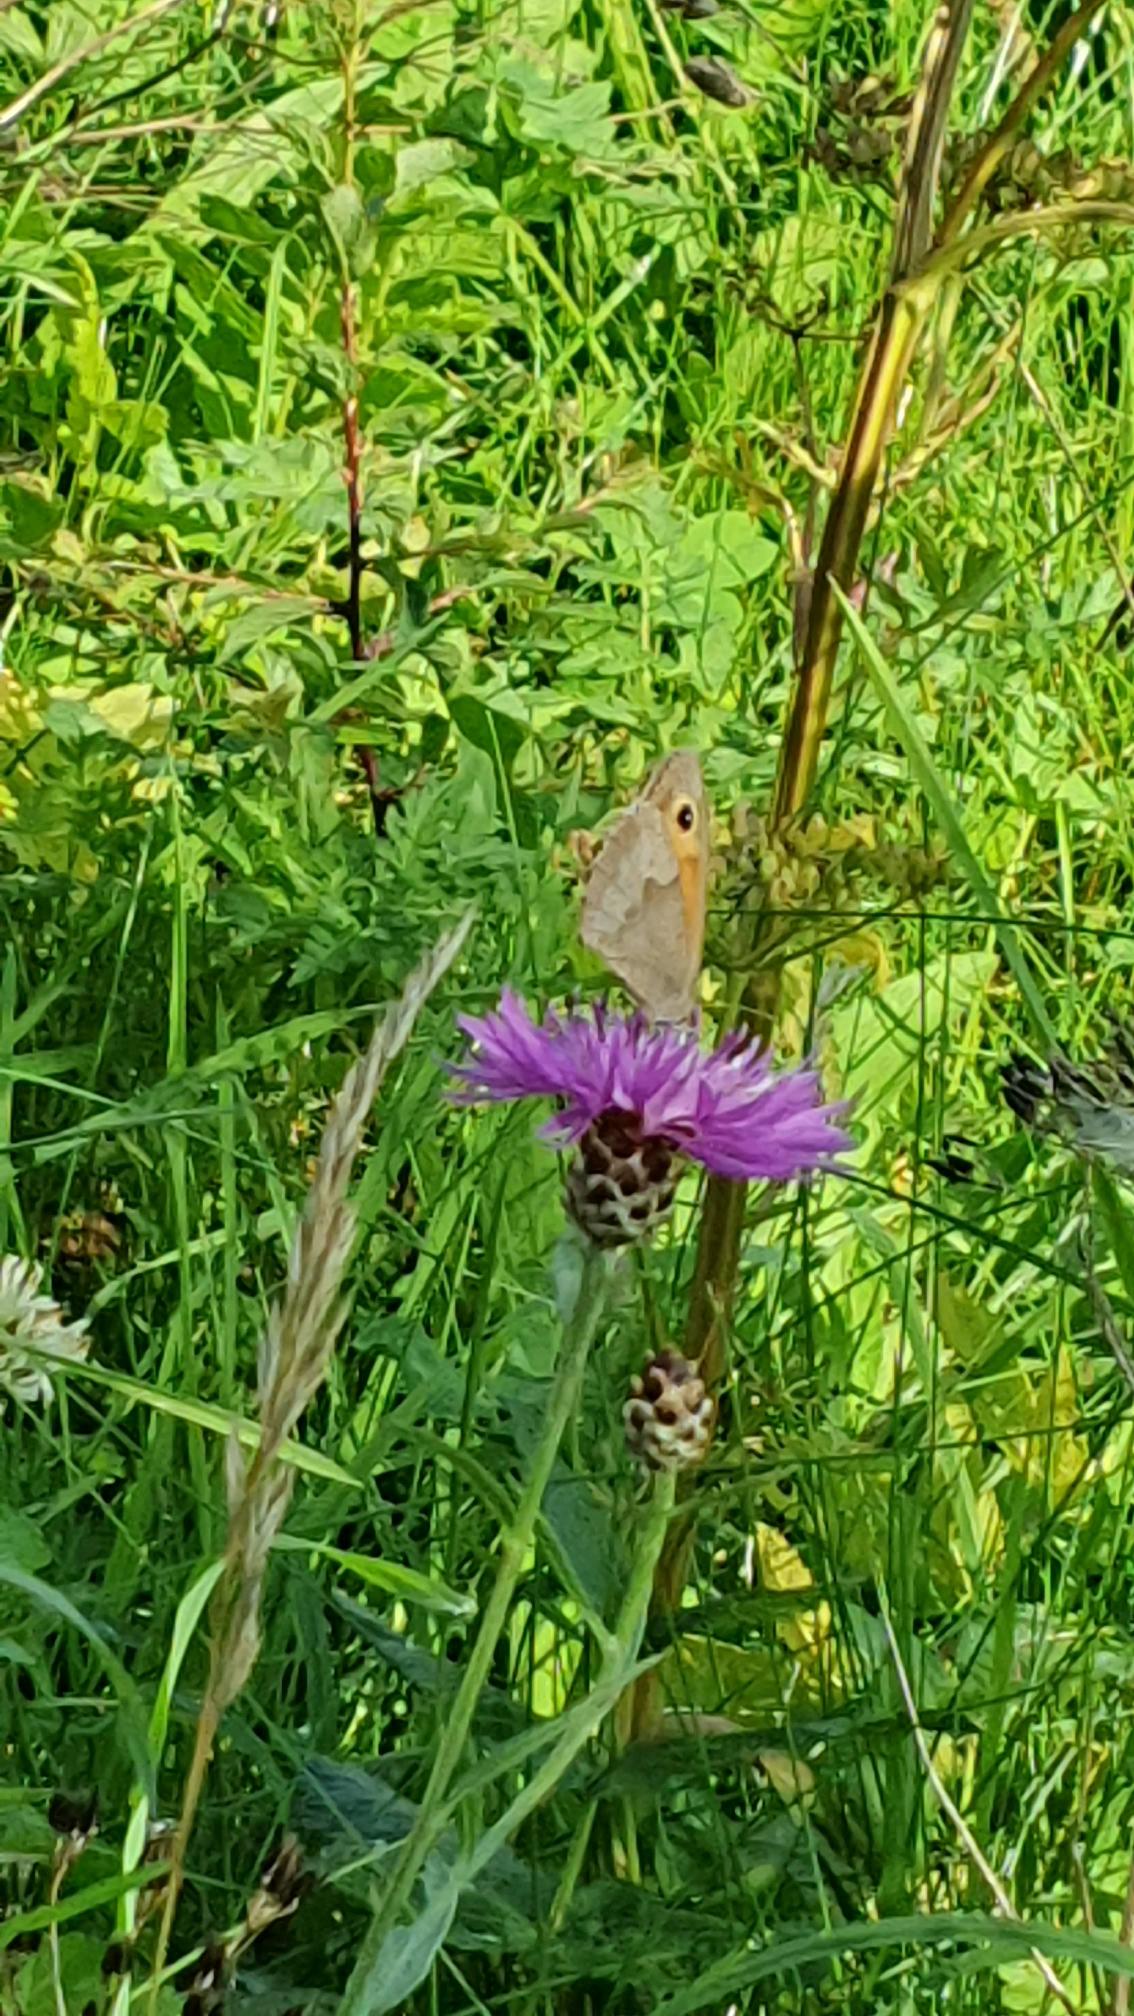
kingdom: Animalia
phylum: Arthropoda
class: Insecta
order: Lepidoptera
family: Nymphalidae
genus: Maniola
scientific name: Maniola jurtina
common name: Græsrandøje
